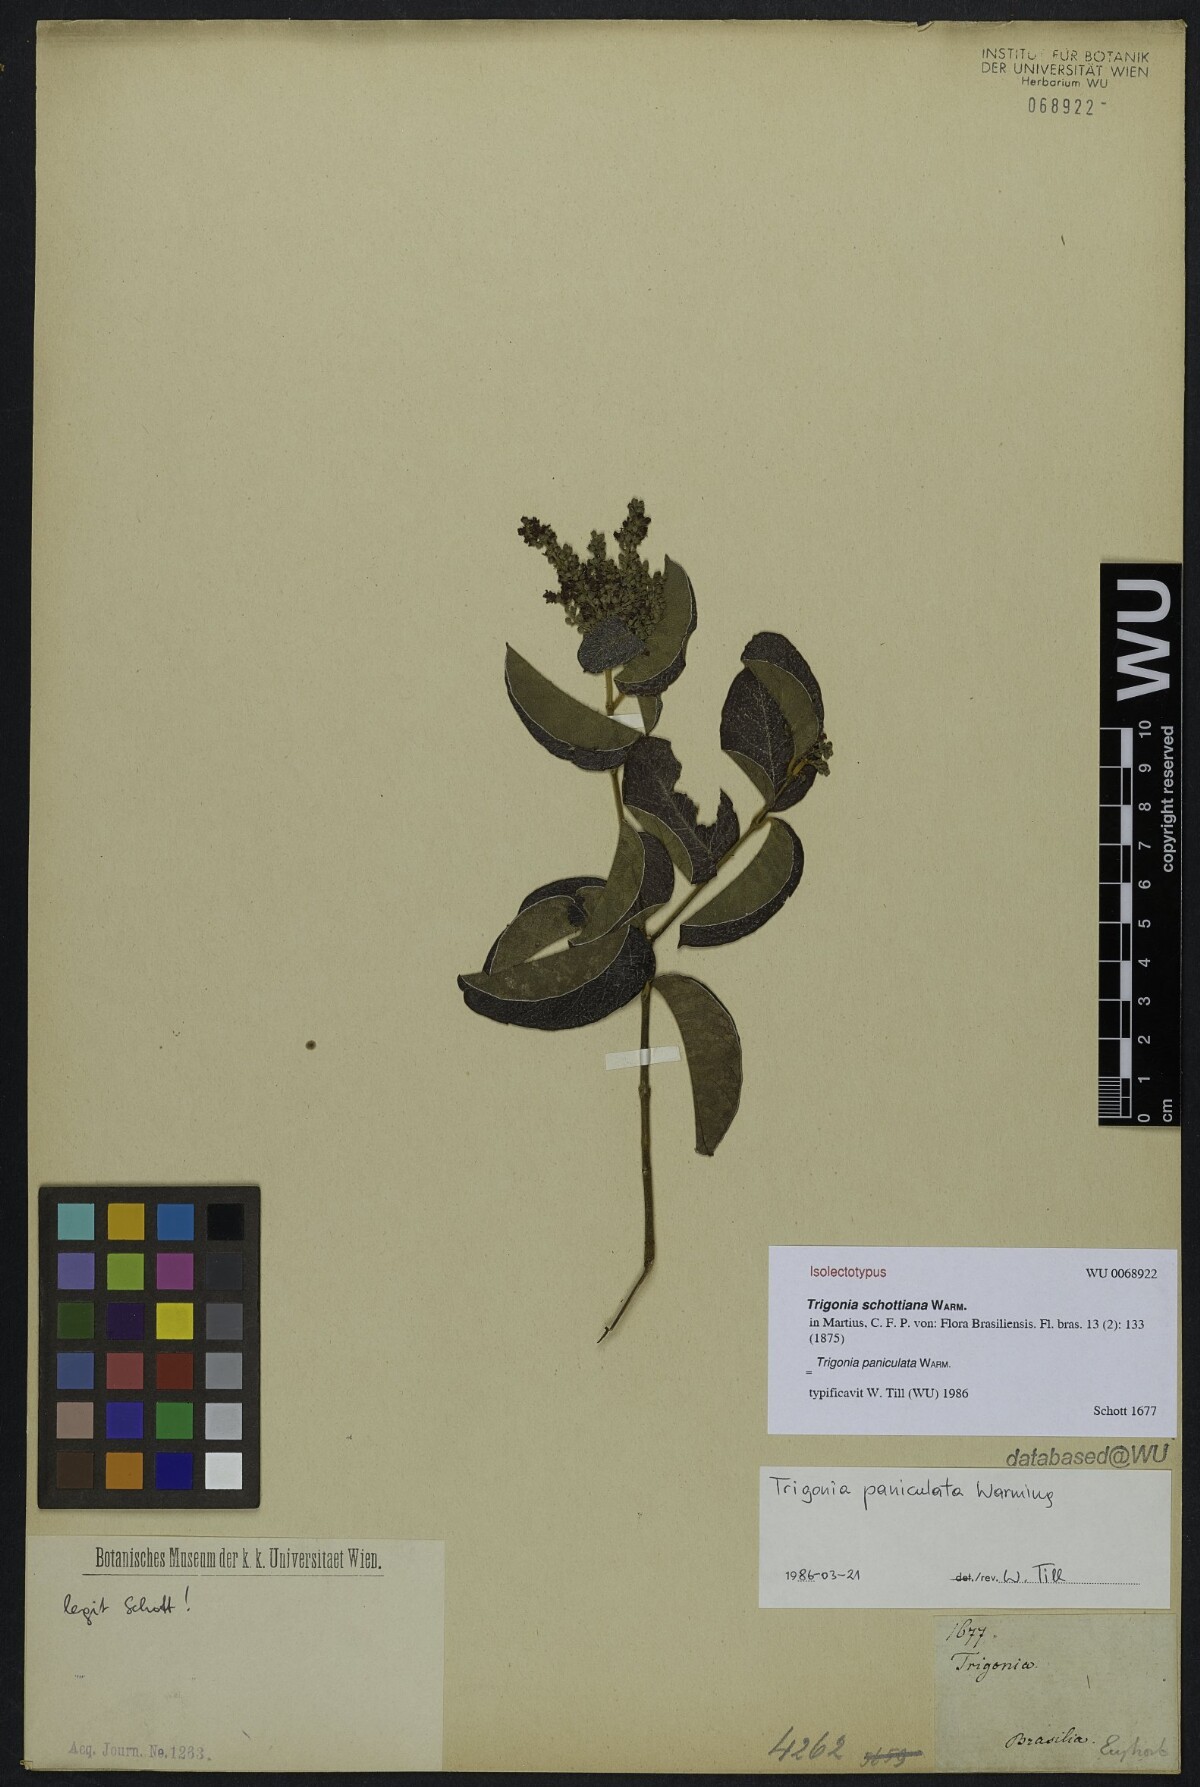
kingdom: Plantae
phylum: Tracheophyta
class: Magnoliopsida
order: Malpighiales
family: Trigoniaceae
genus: Trigonia
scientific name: Trigonia eriosperma
